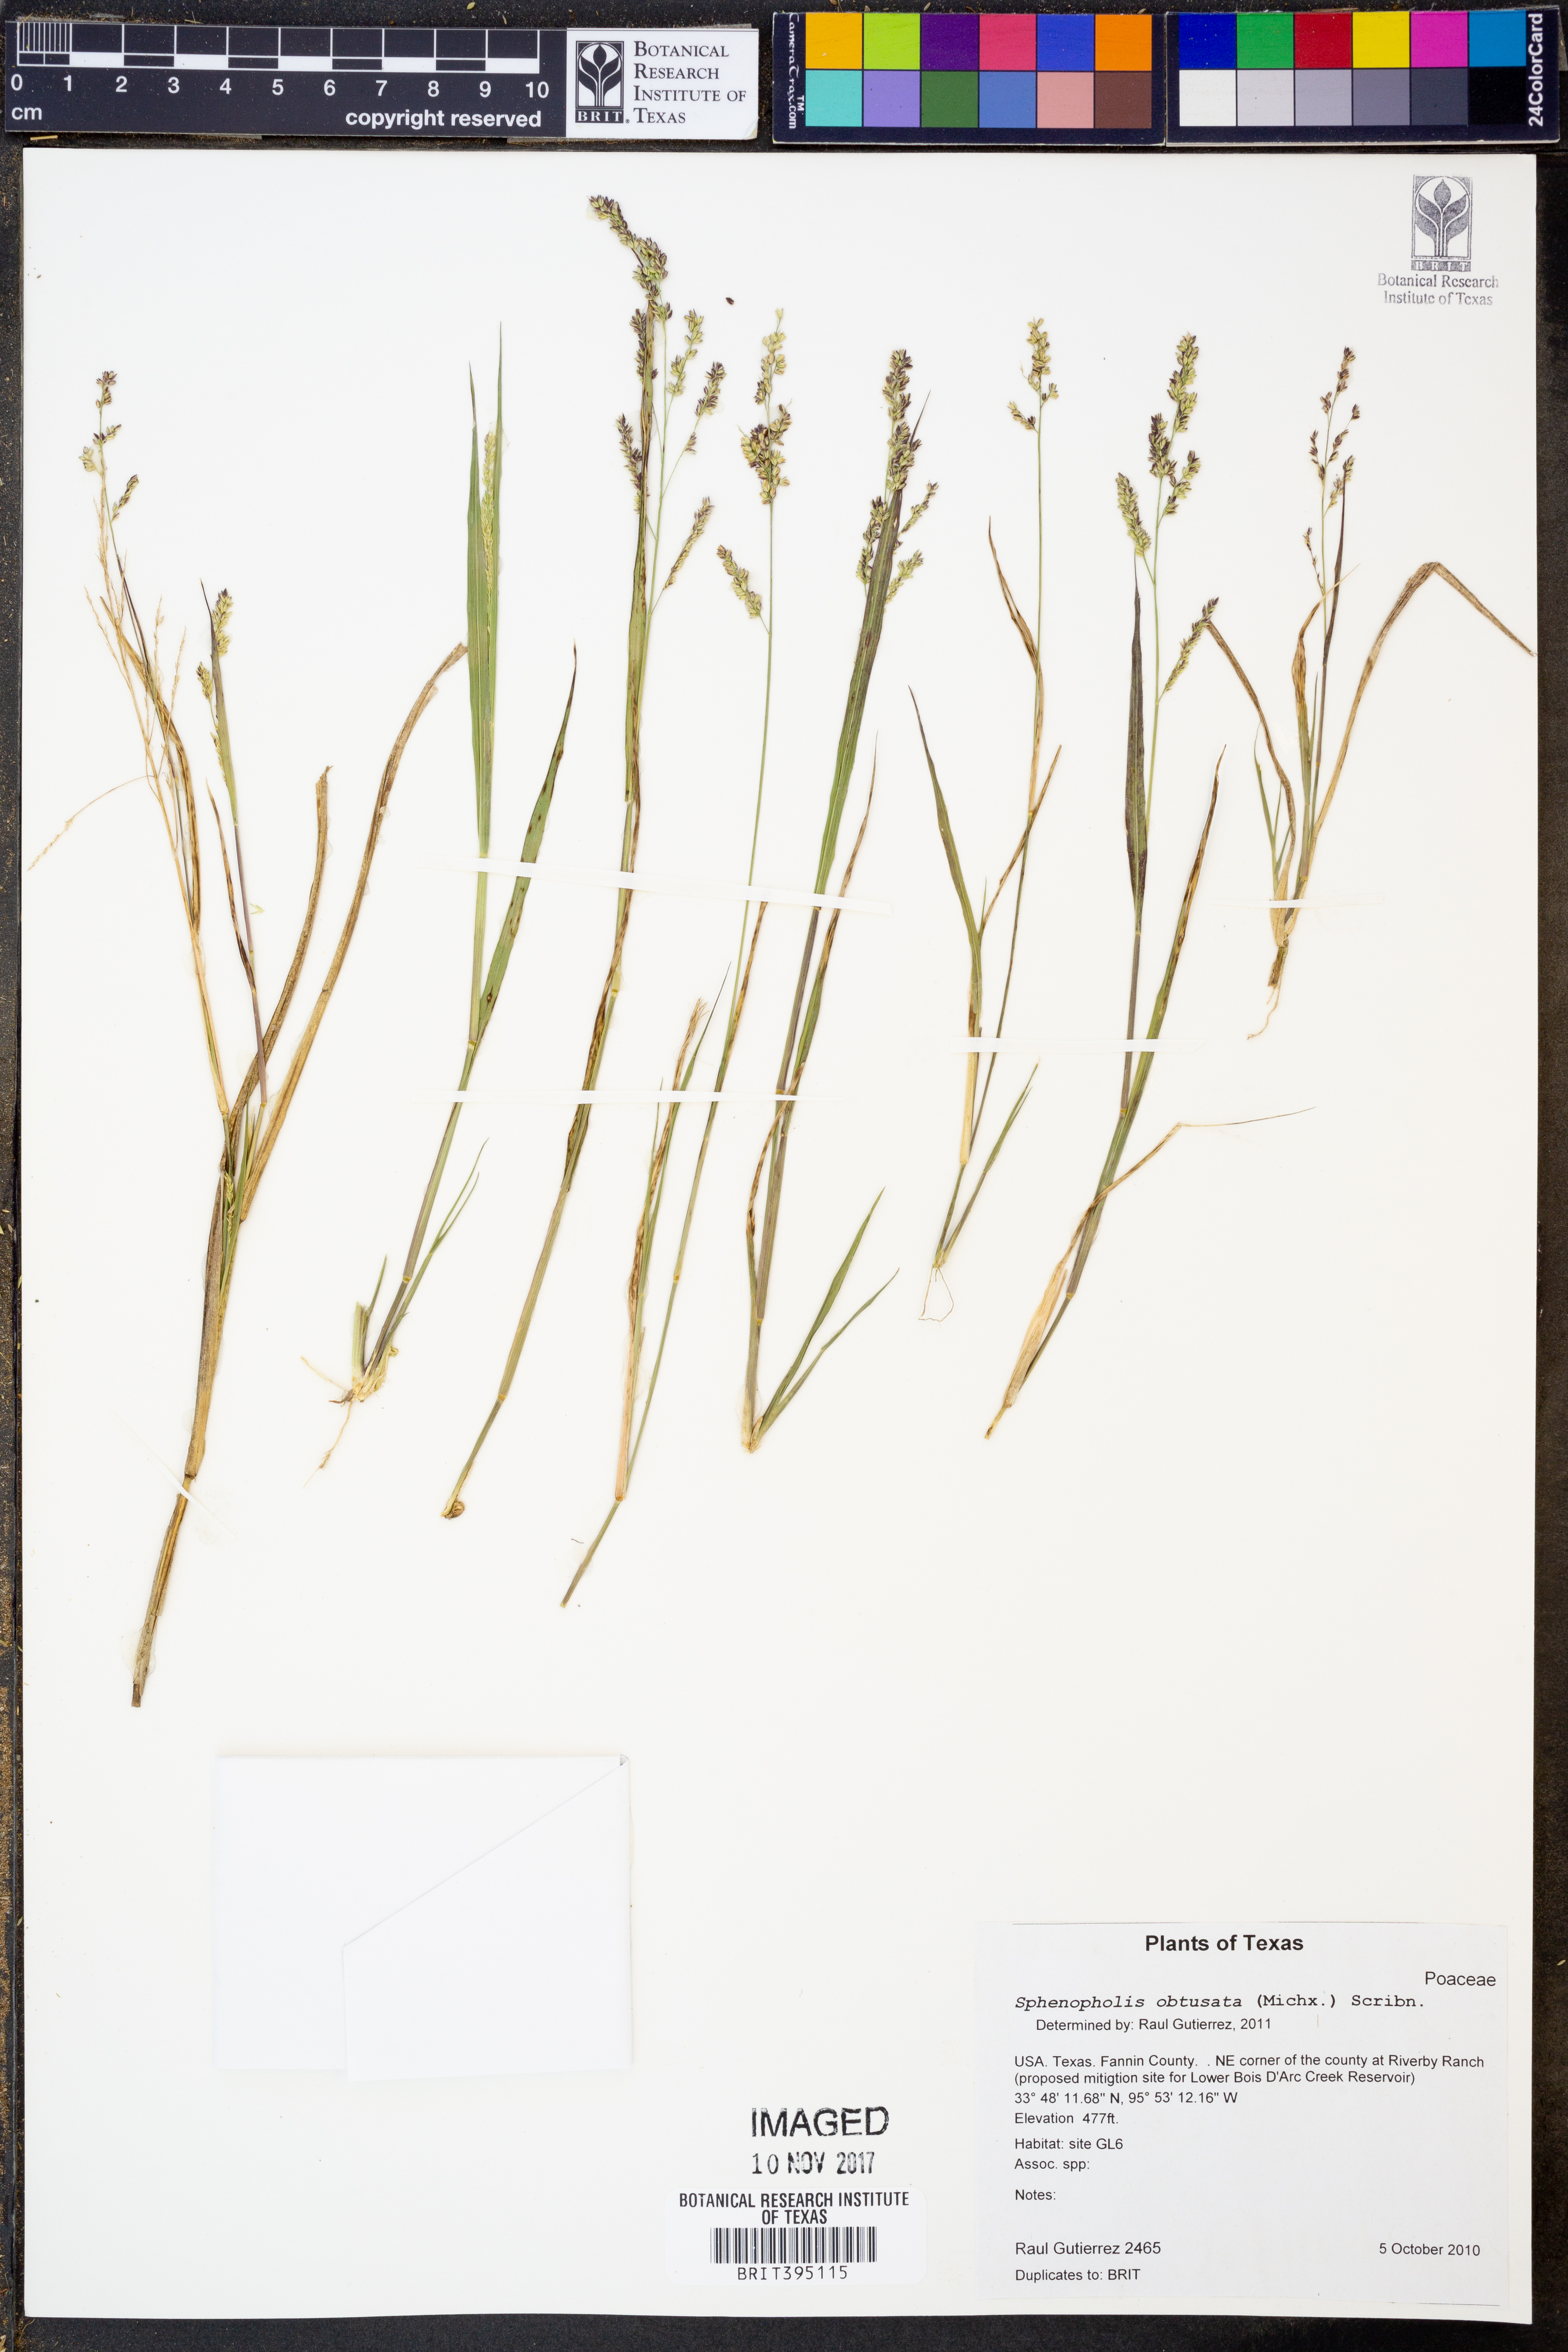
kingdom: Plantae
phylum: Tracheophyta
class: Liliopsida
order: Poales
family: Poaceae
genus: Sphenopholis
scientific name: Sphenopholis obtusata
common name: Prairie grass
